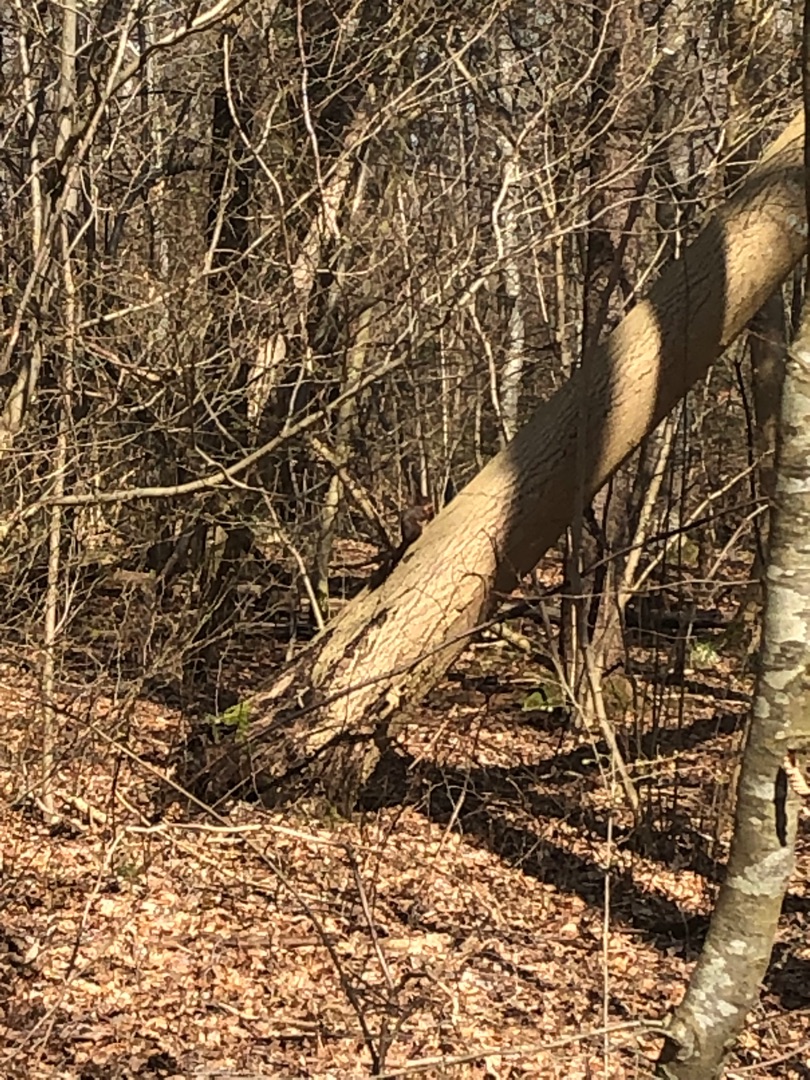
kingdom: Animalia
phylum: Chordata
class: Mammalia
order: Rodentia
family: Sciuridae
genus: Sciurus
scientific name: Sciurus vulgaris
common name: Egern
